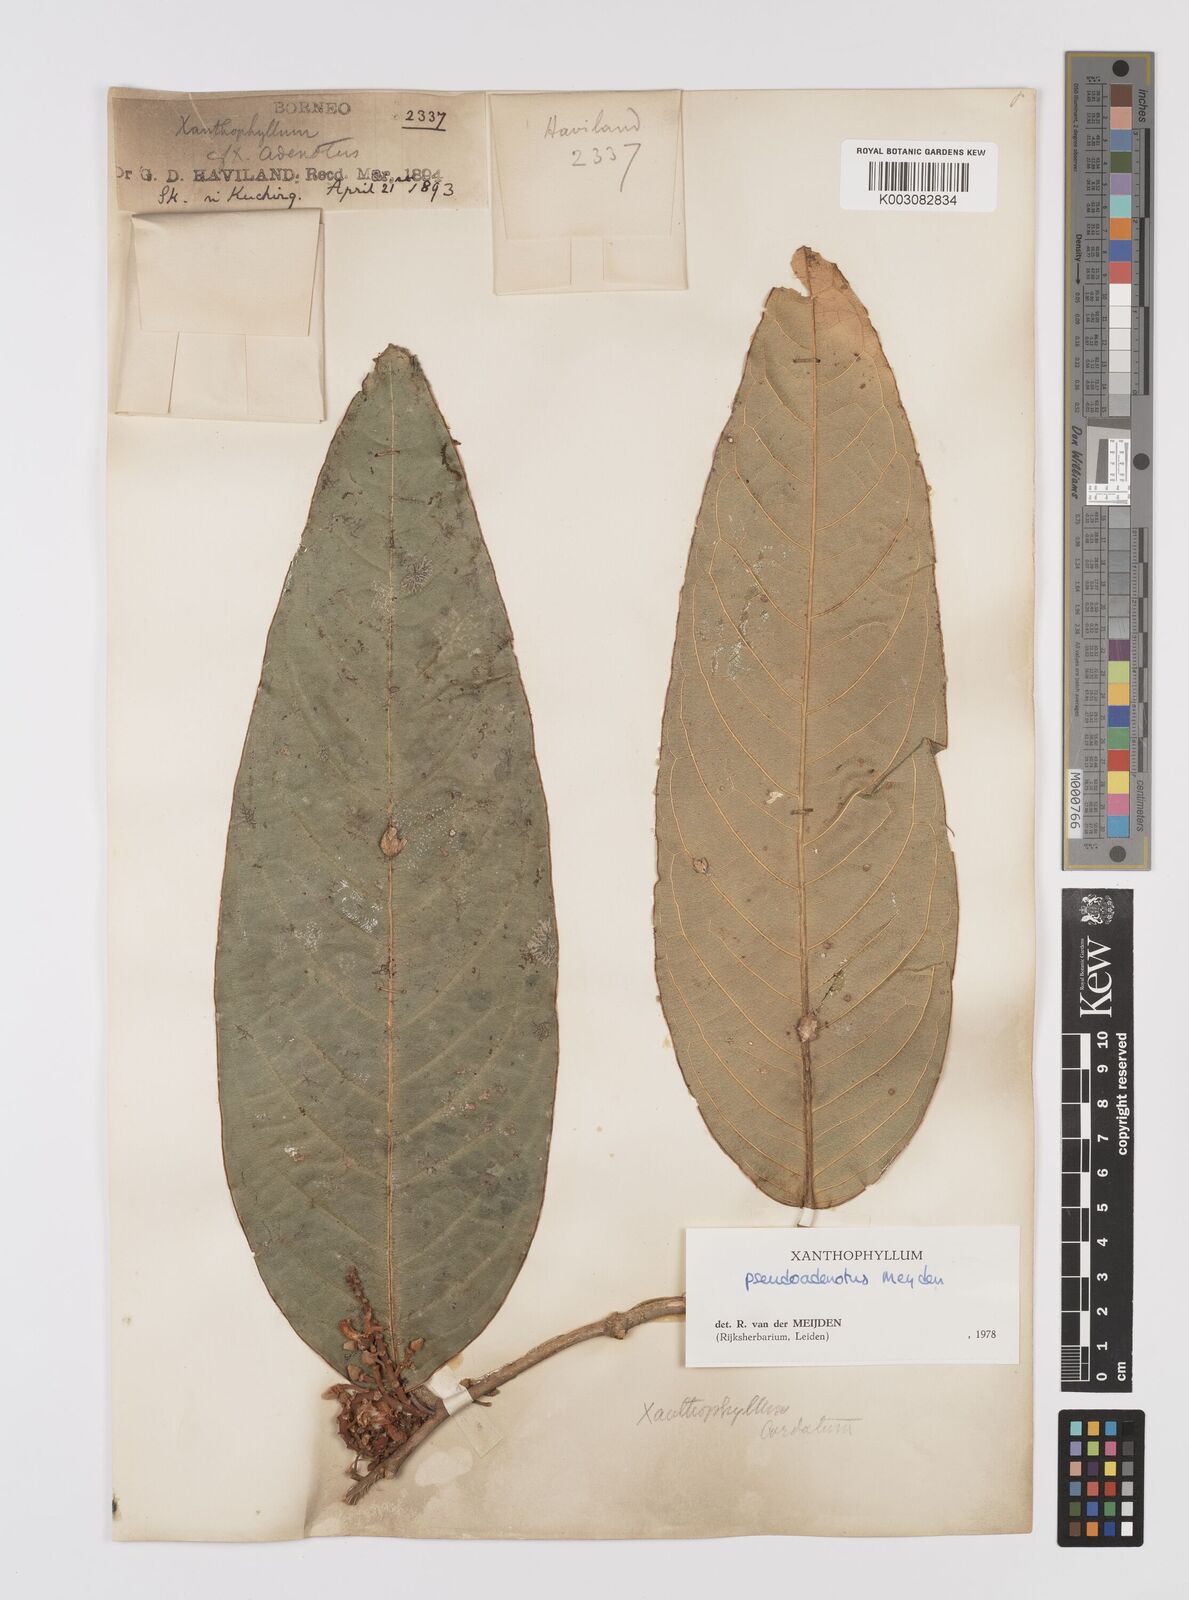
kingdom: Plantae
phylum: Tracheophyta
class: Magnoliopsida
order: Fabales
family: Polygalaceae
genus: Xanthophyllum
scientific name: Xanthophyllum pseudoadenotus
